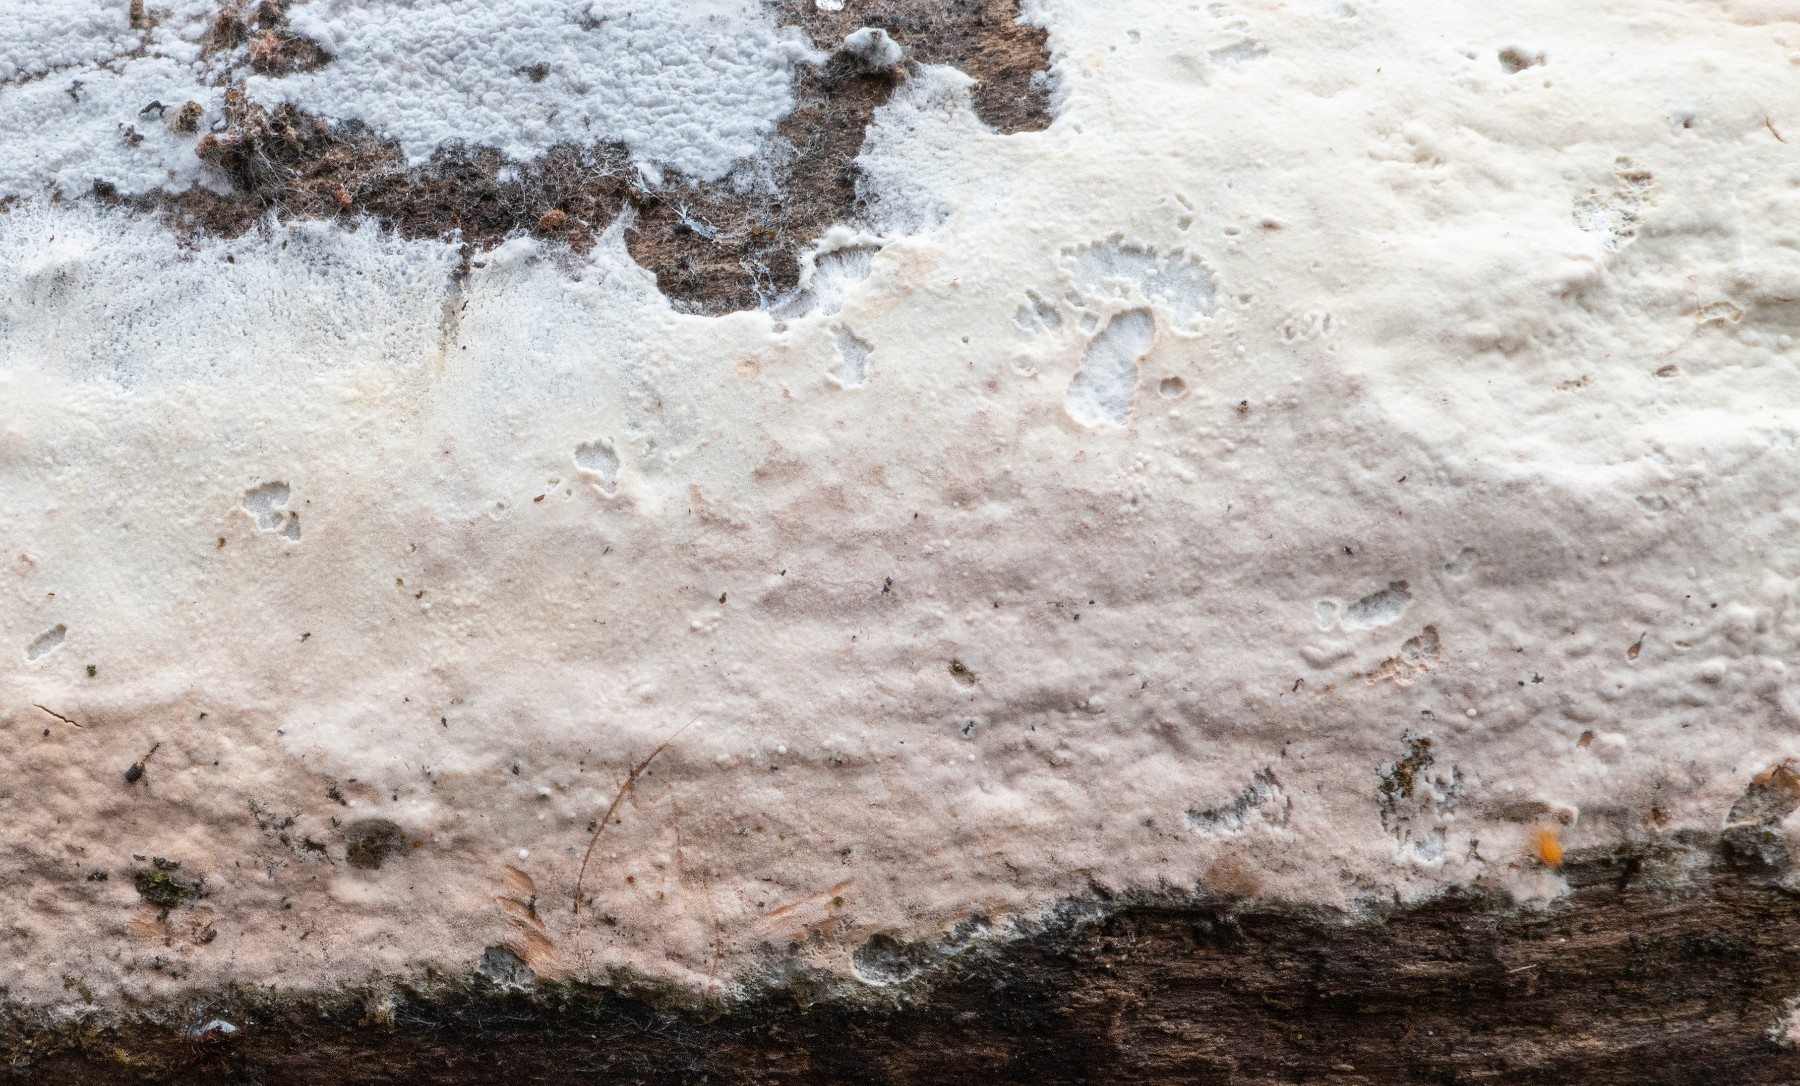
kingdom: Fungi
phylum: Basidiomycota
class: Agaricomycetes
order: Agaricales
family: Cyphellaceae
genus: Granulobasidium
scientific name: Granulobasidium vellereum
